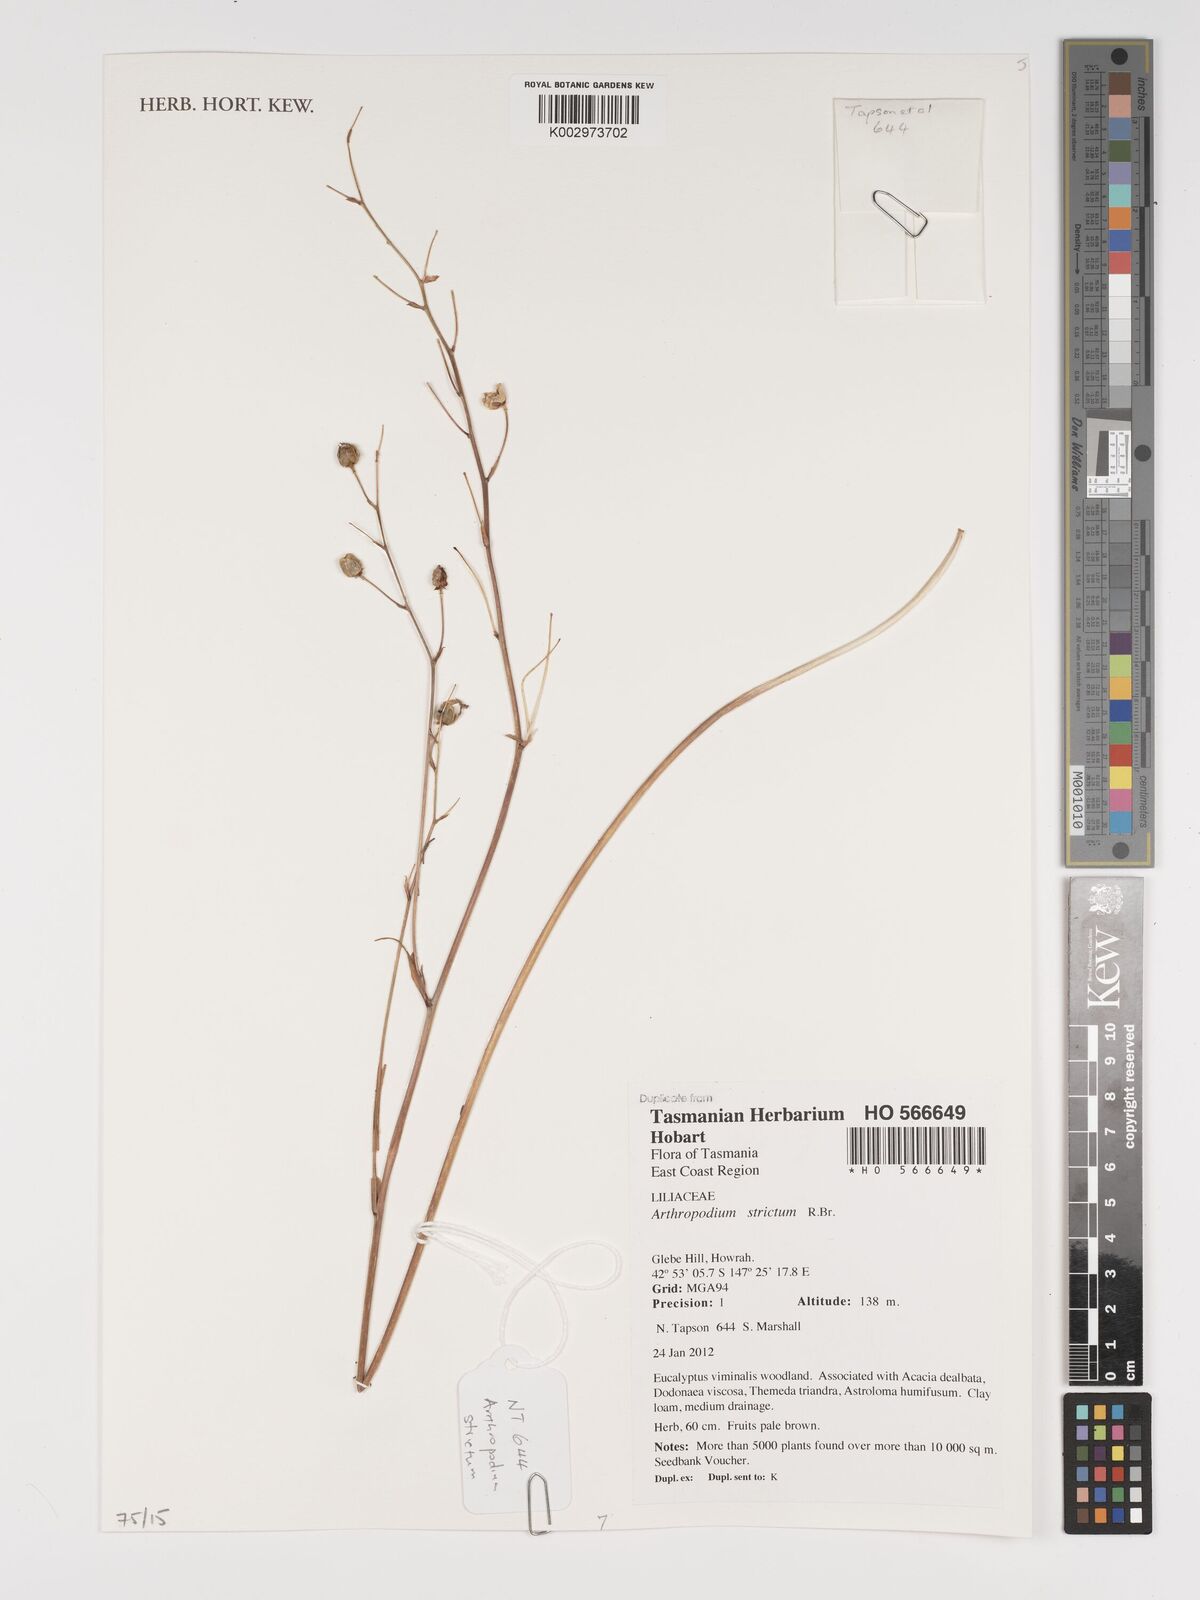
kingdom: Plantae
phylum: Tracheophyta
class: Liliopsida
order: Asparagales
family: Asparagaceae
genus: Arthropodium
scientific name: Arthropodium strictum
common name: Chocolate-lily
